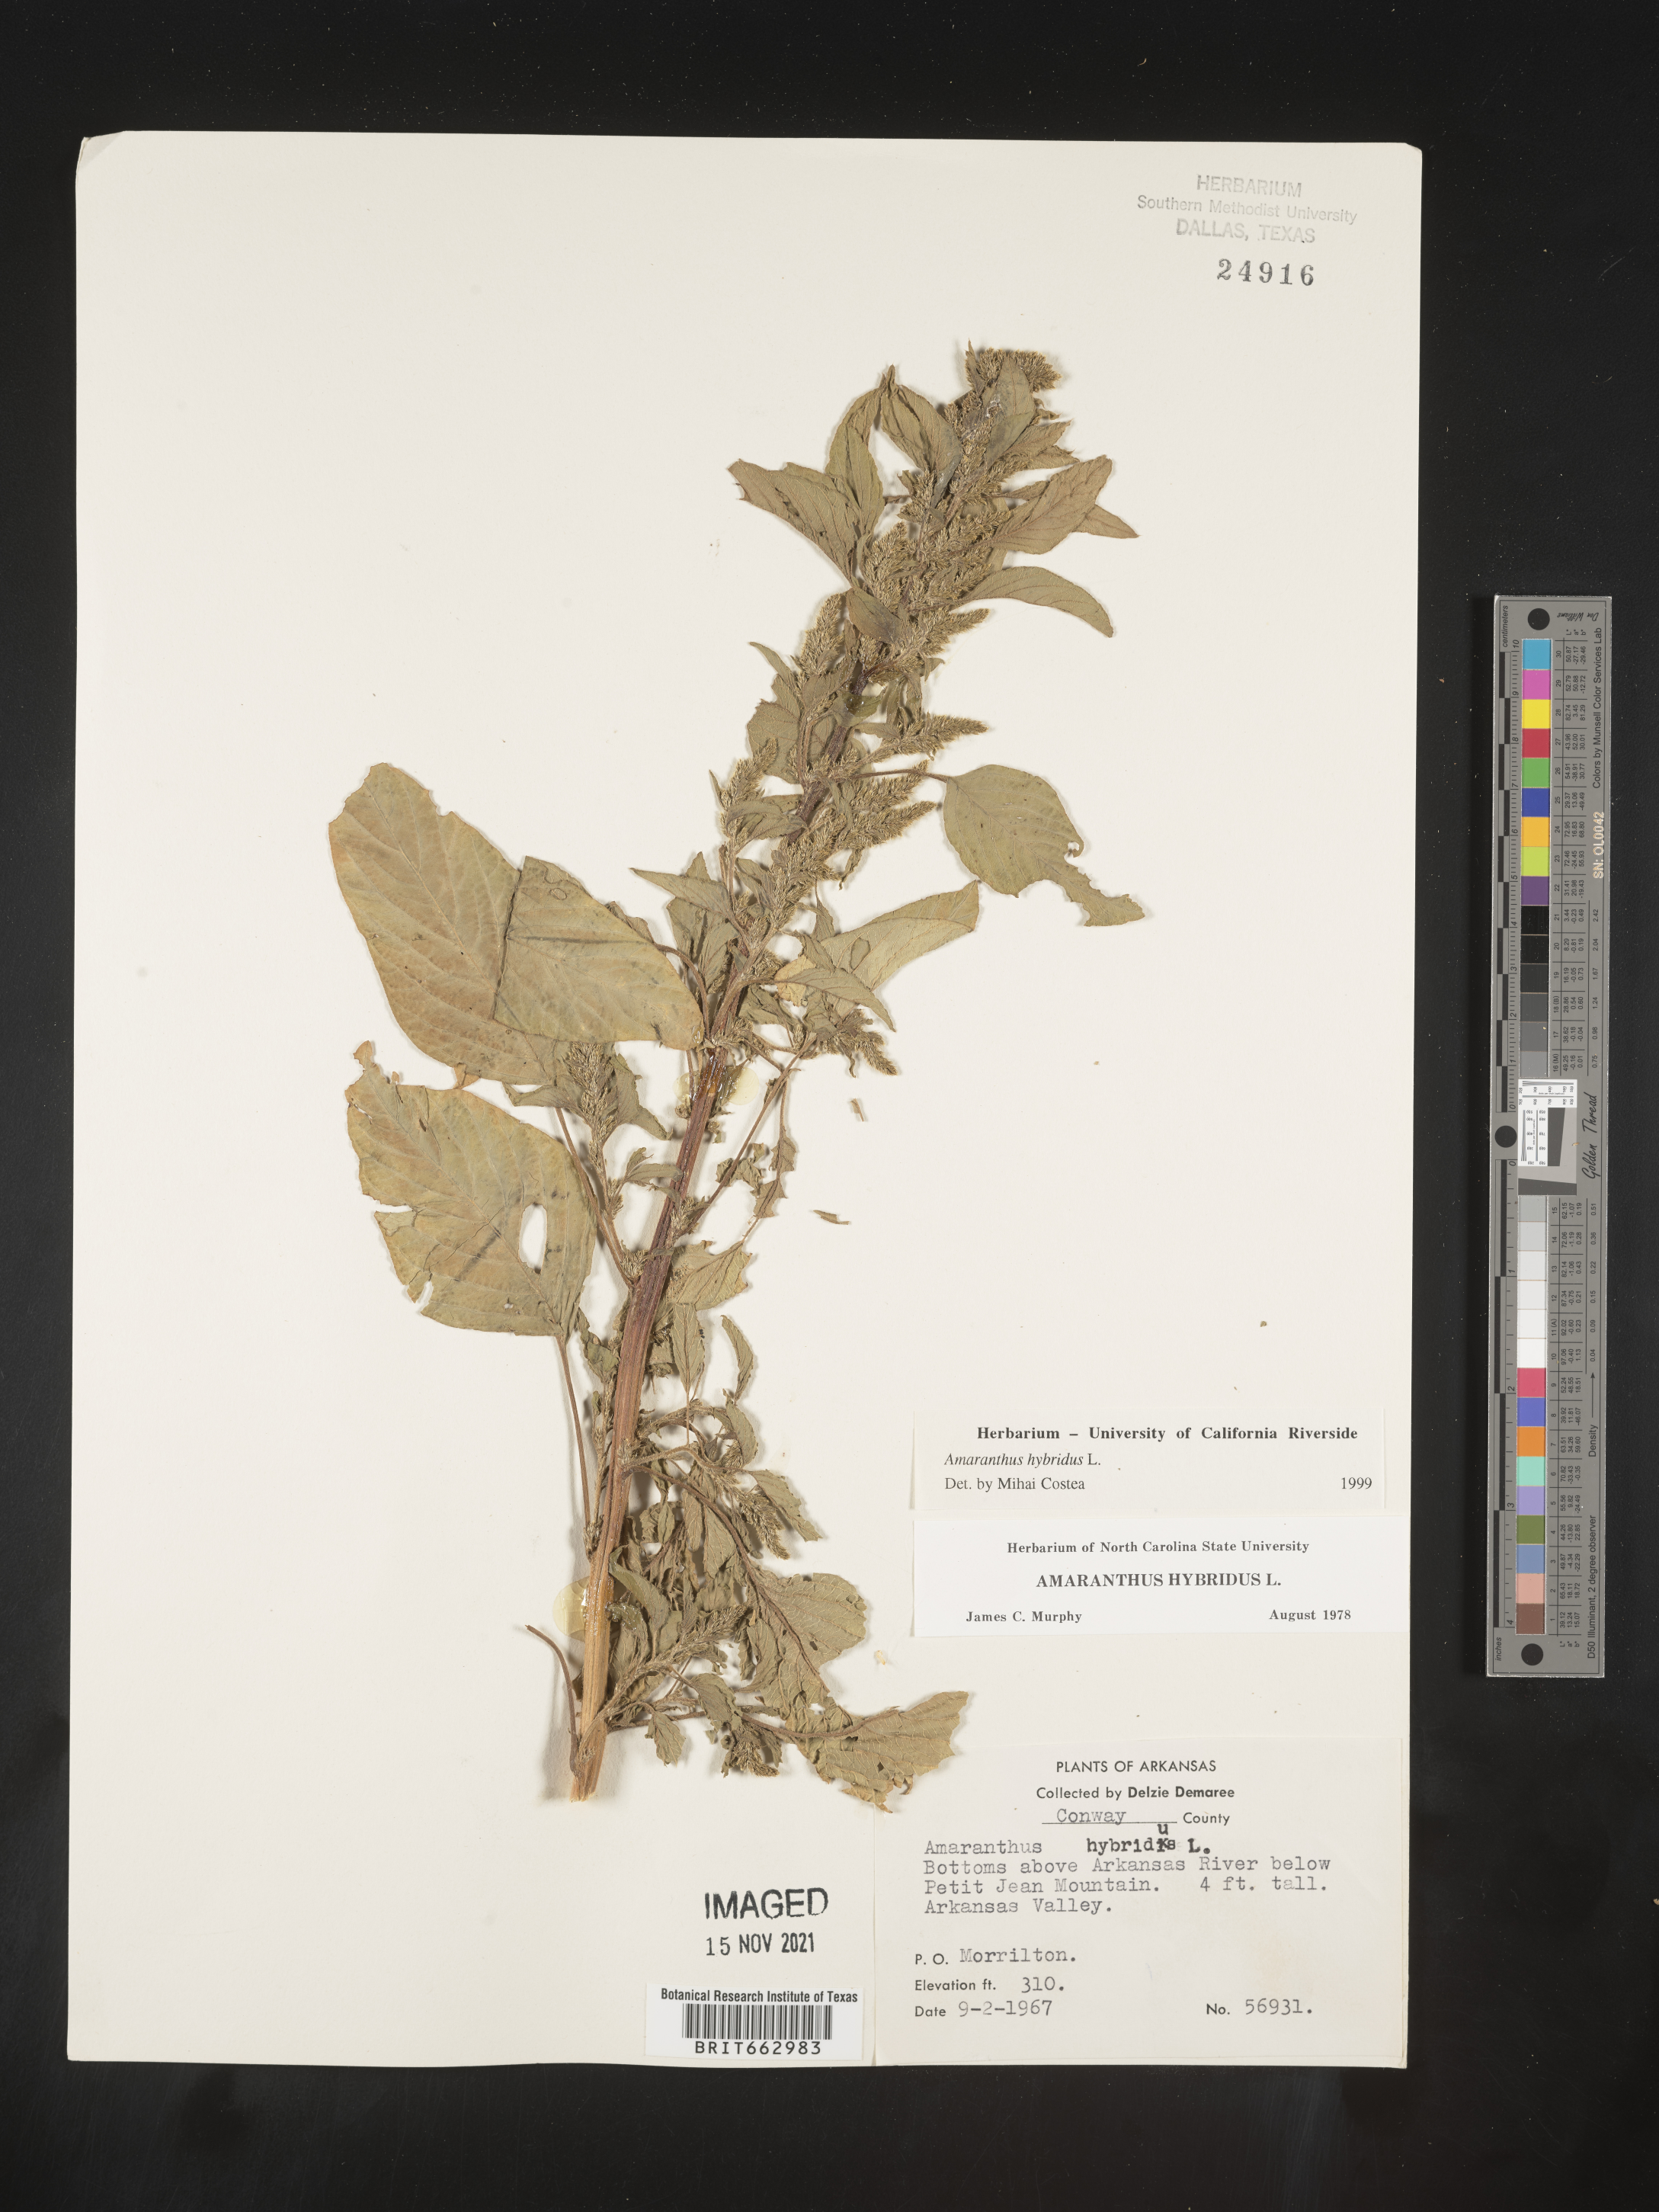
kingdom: Plantae
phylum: Tracheophyta
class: Magnoliopsida
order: Caryophyllales
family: Amaranthaceae
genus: Amaranthus
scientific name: Amaranthus hybridus
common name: Green amaranth
